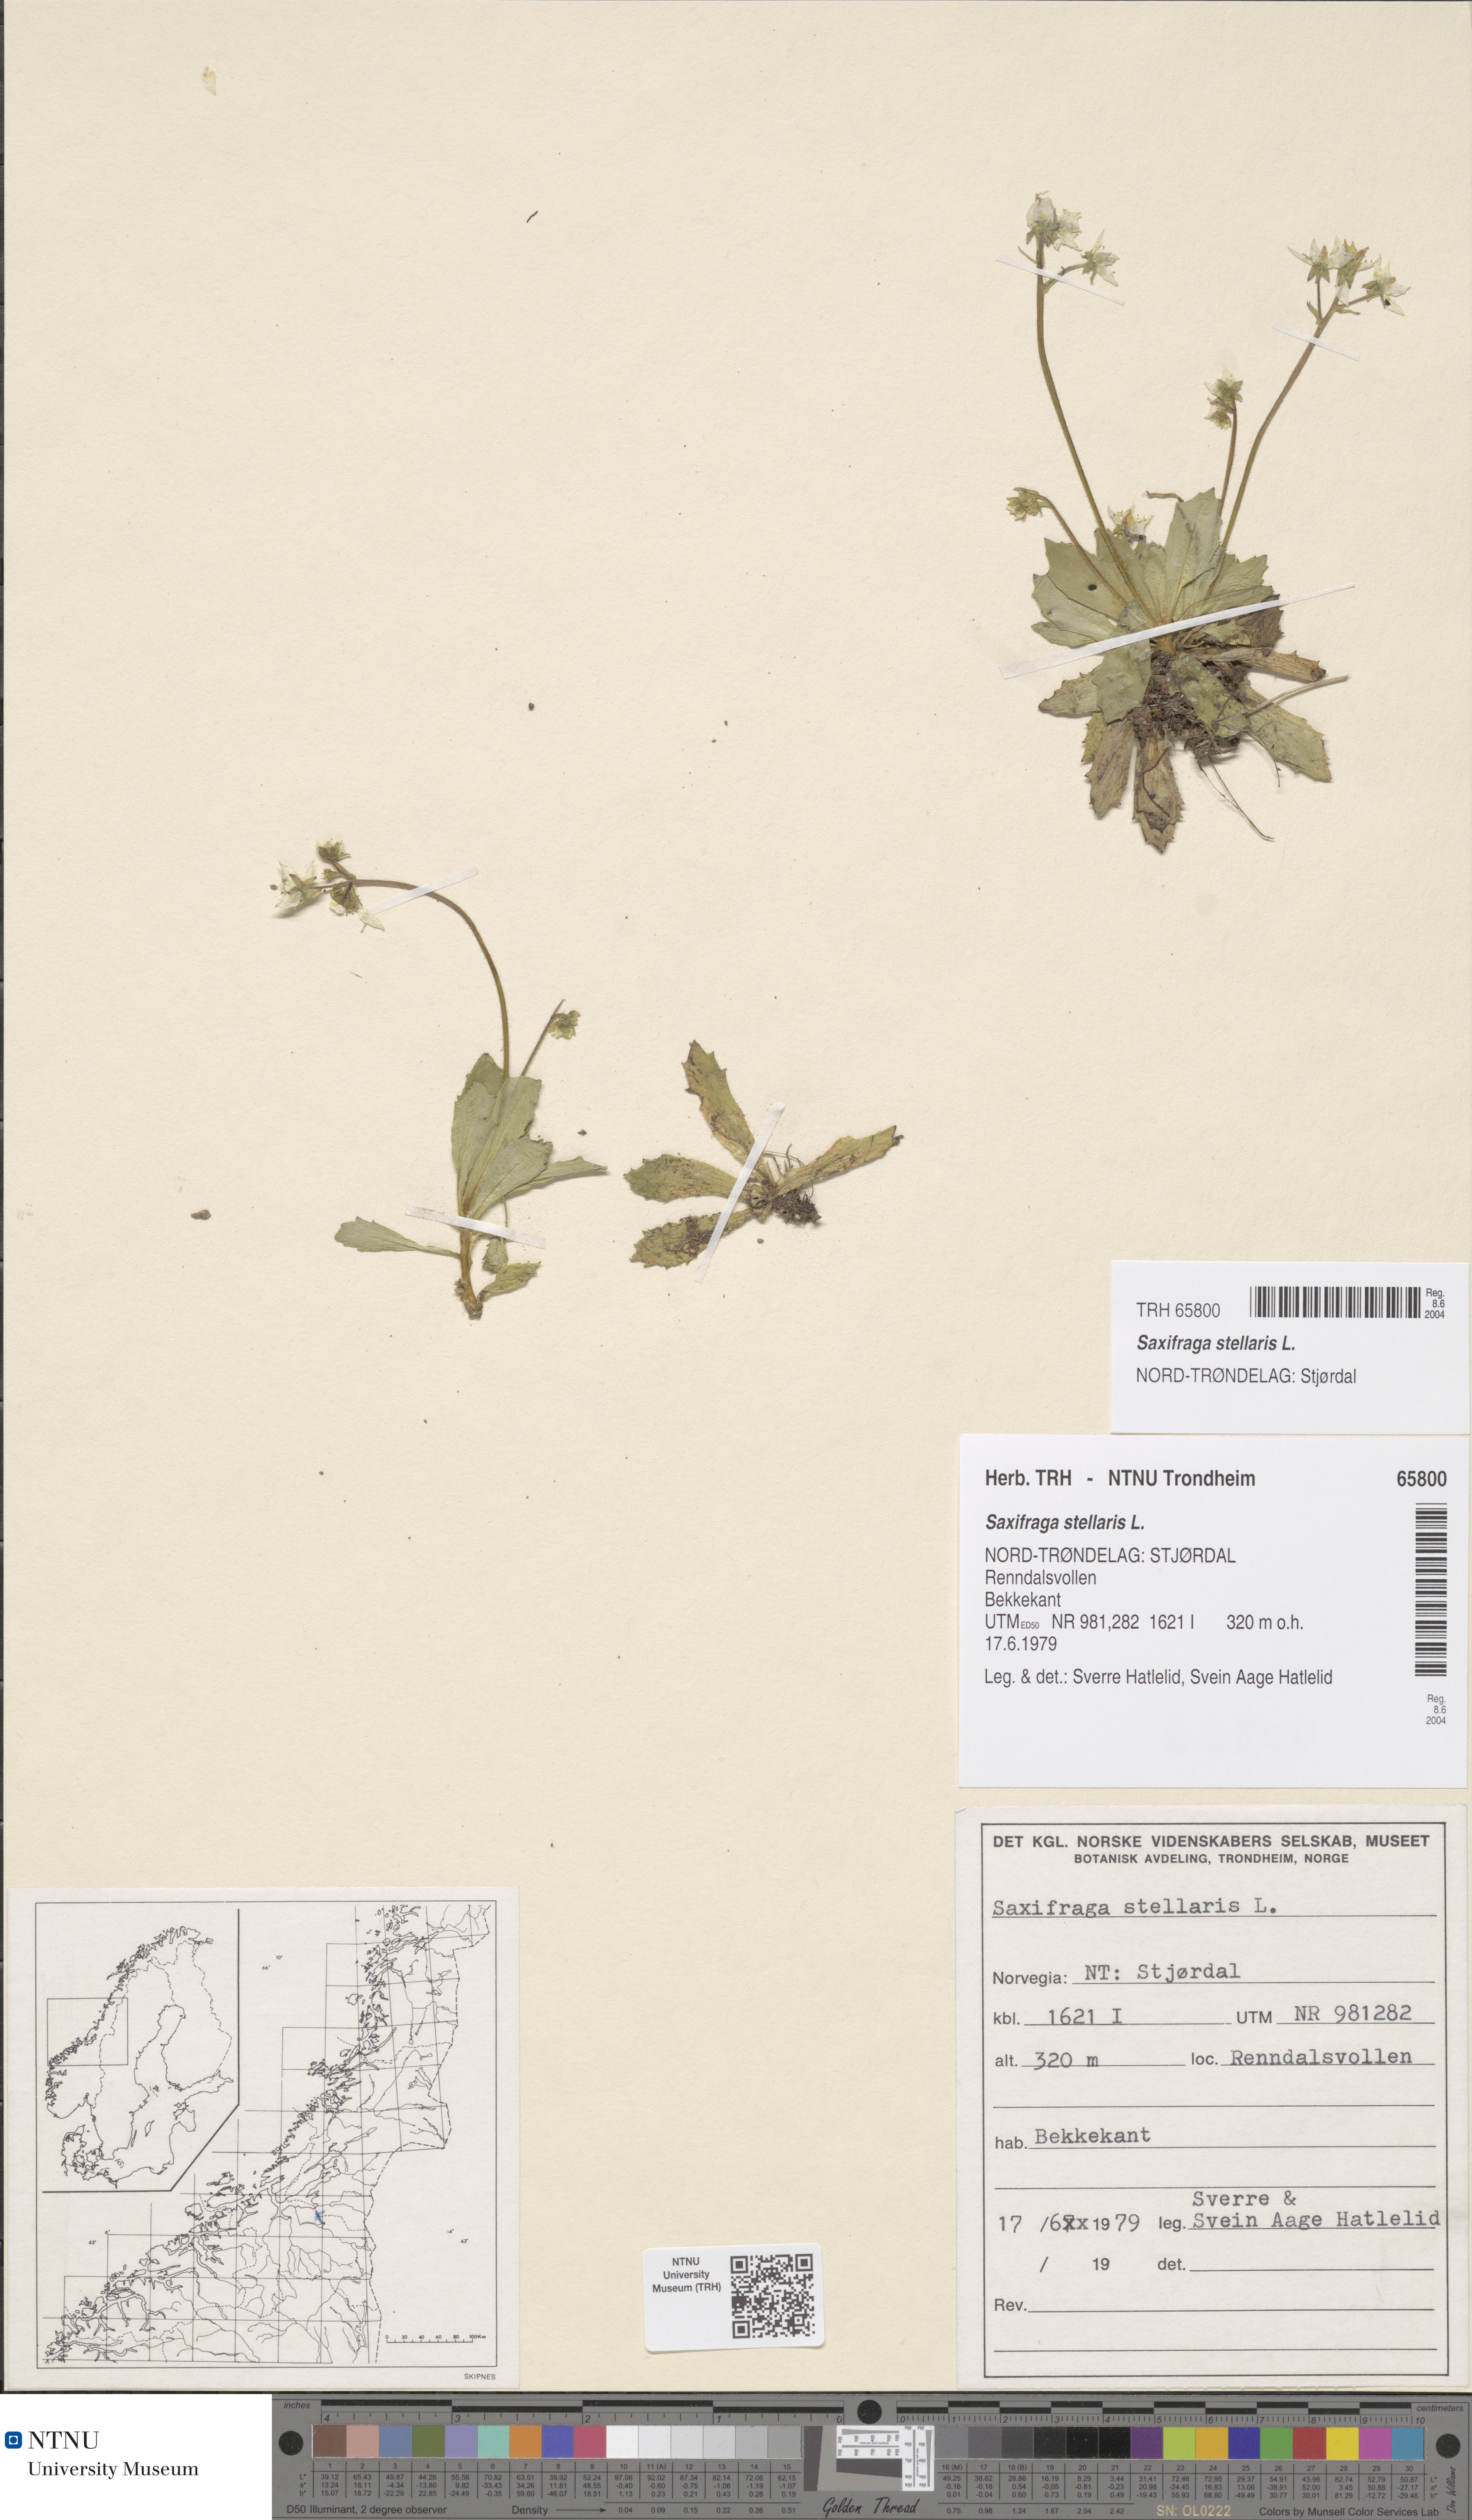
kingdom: Plantae
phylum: Tracheophyta
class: Magnoliopsida
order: Saxifragales
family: Saxifragaceae
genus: Micranthes
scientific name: Micranthes stellaris
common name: Starry saxifrage
